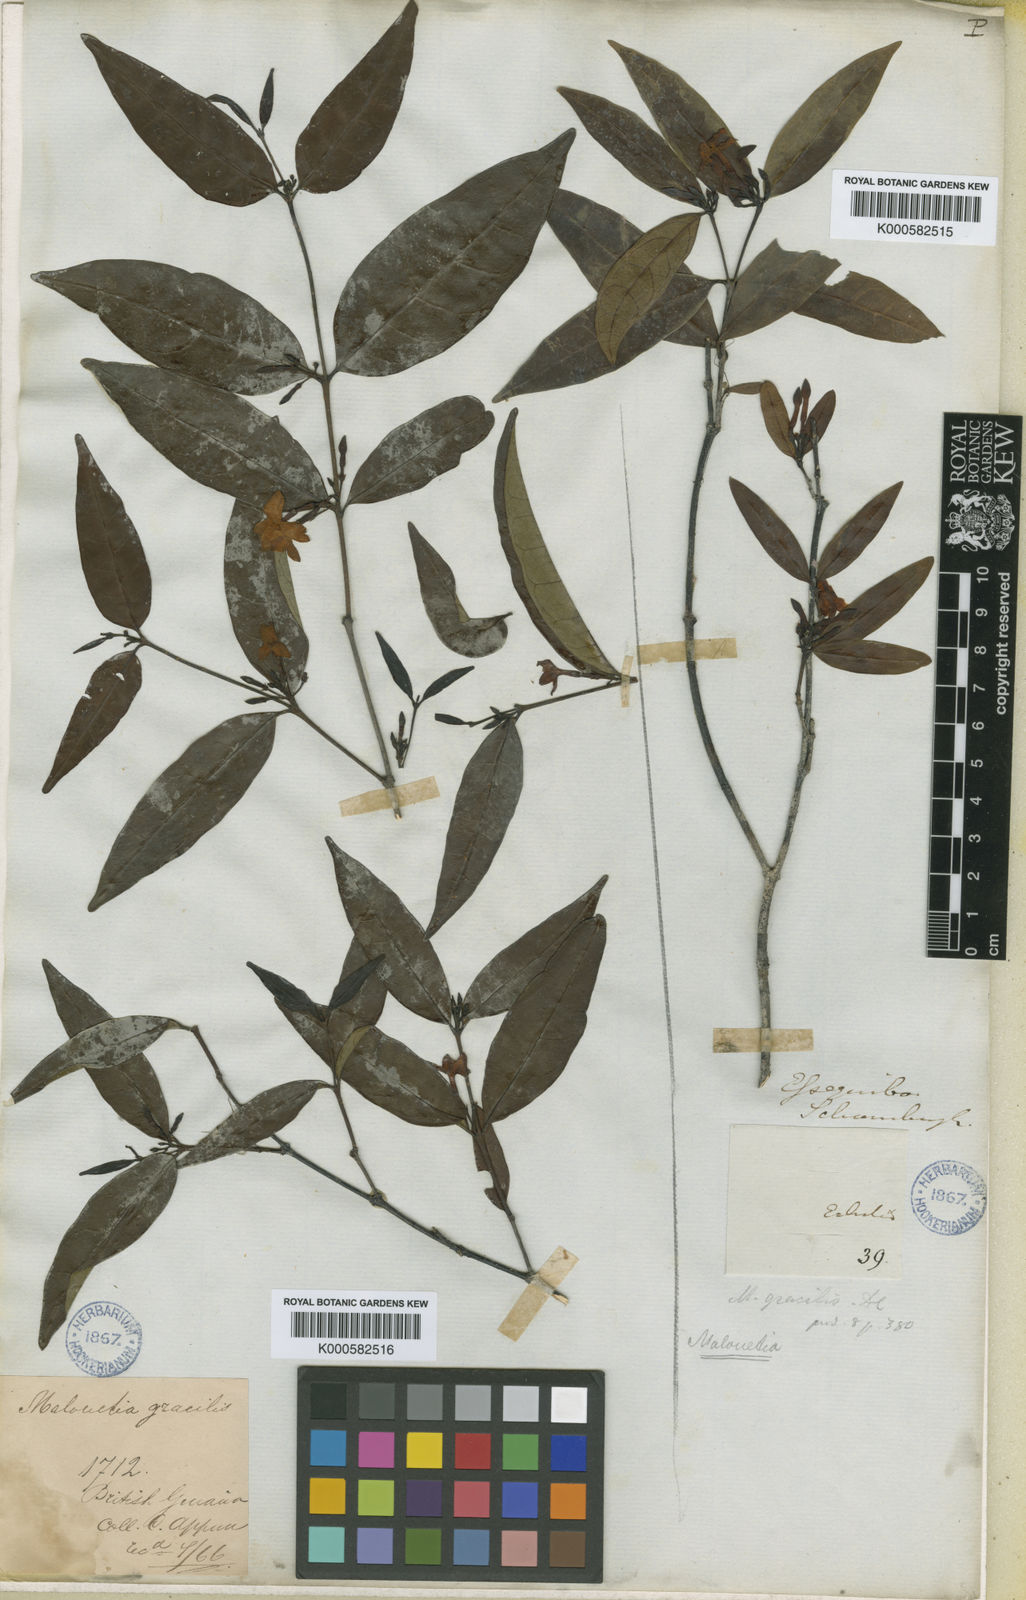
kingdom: Plantae
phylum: Tracheophyta
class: Magnoliopsida
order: Gentianales
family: Apocynaceae
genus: Malouetia
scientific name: Malouetia gracilis
